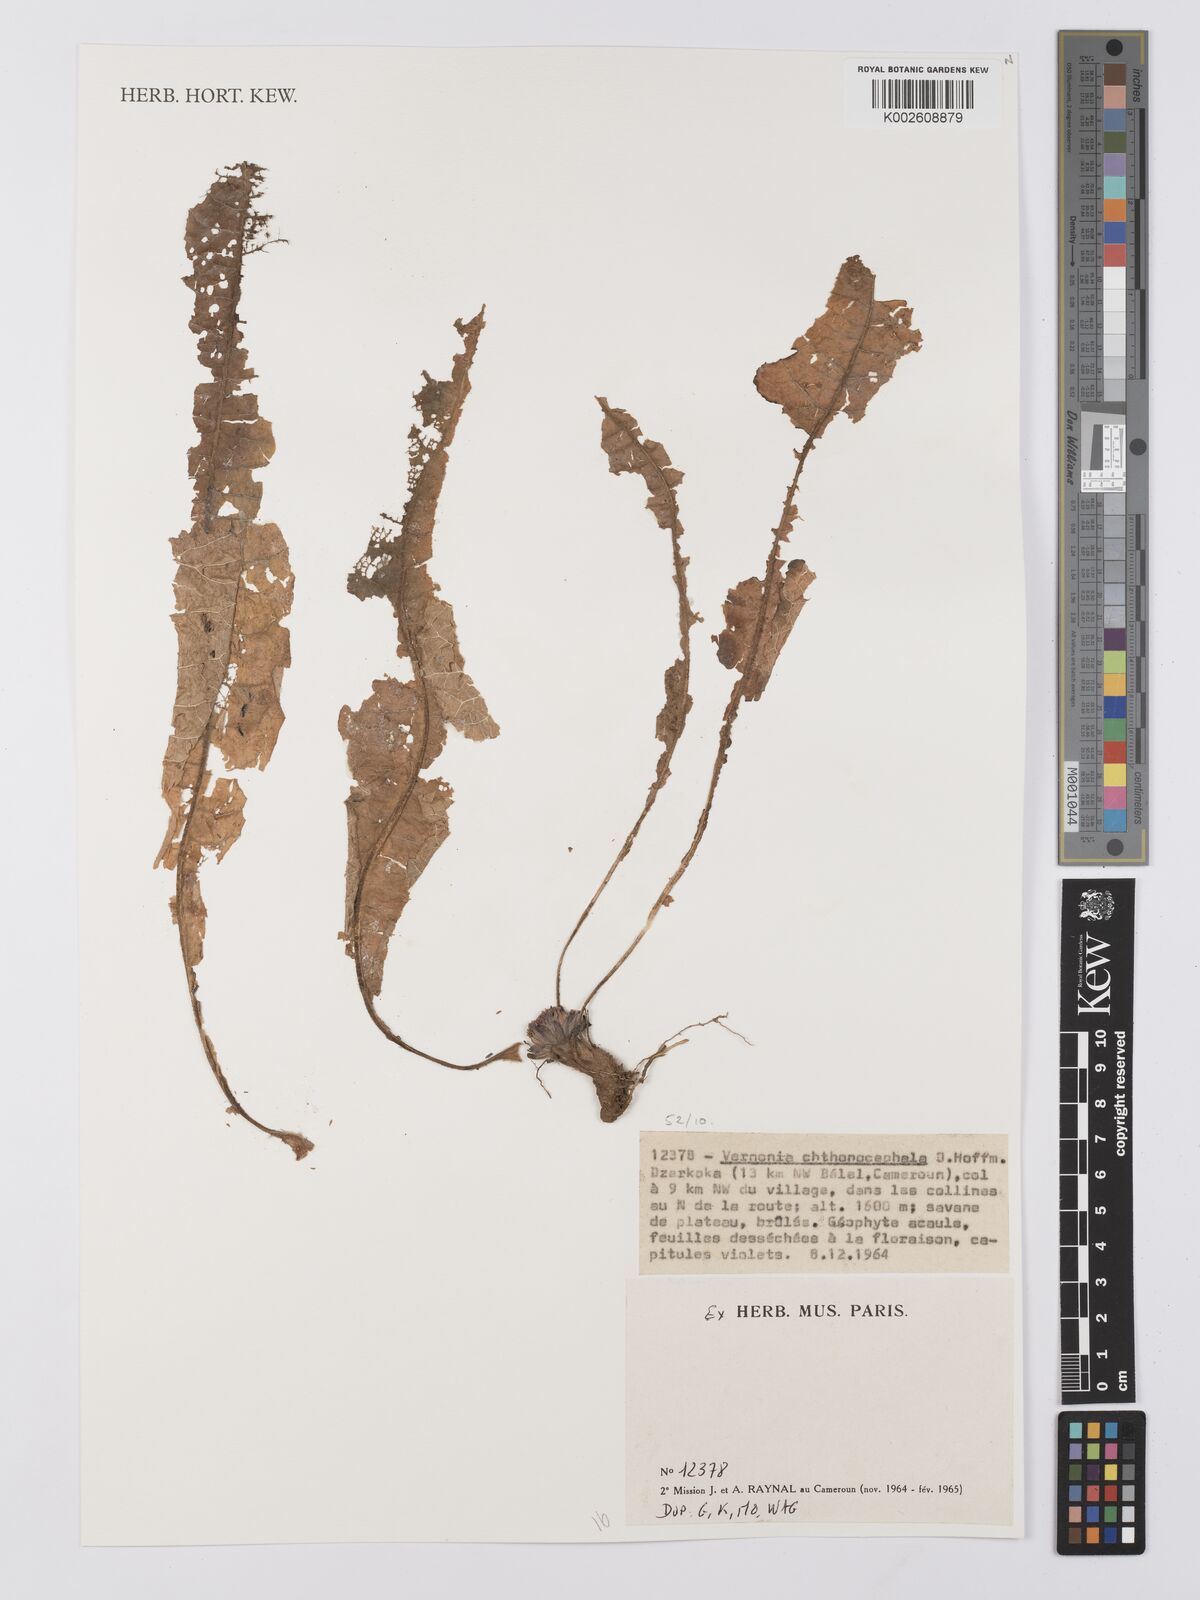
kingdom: Plantae
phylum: Tracheophyta
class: Magnoliopsida
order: Asterales
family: Asteraceae
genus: Vernonella
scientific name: Vernonella chthonocephala
